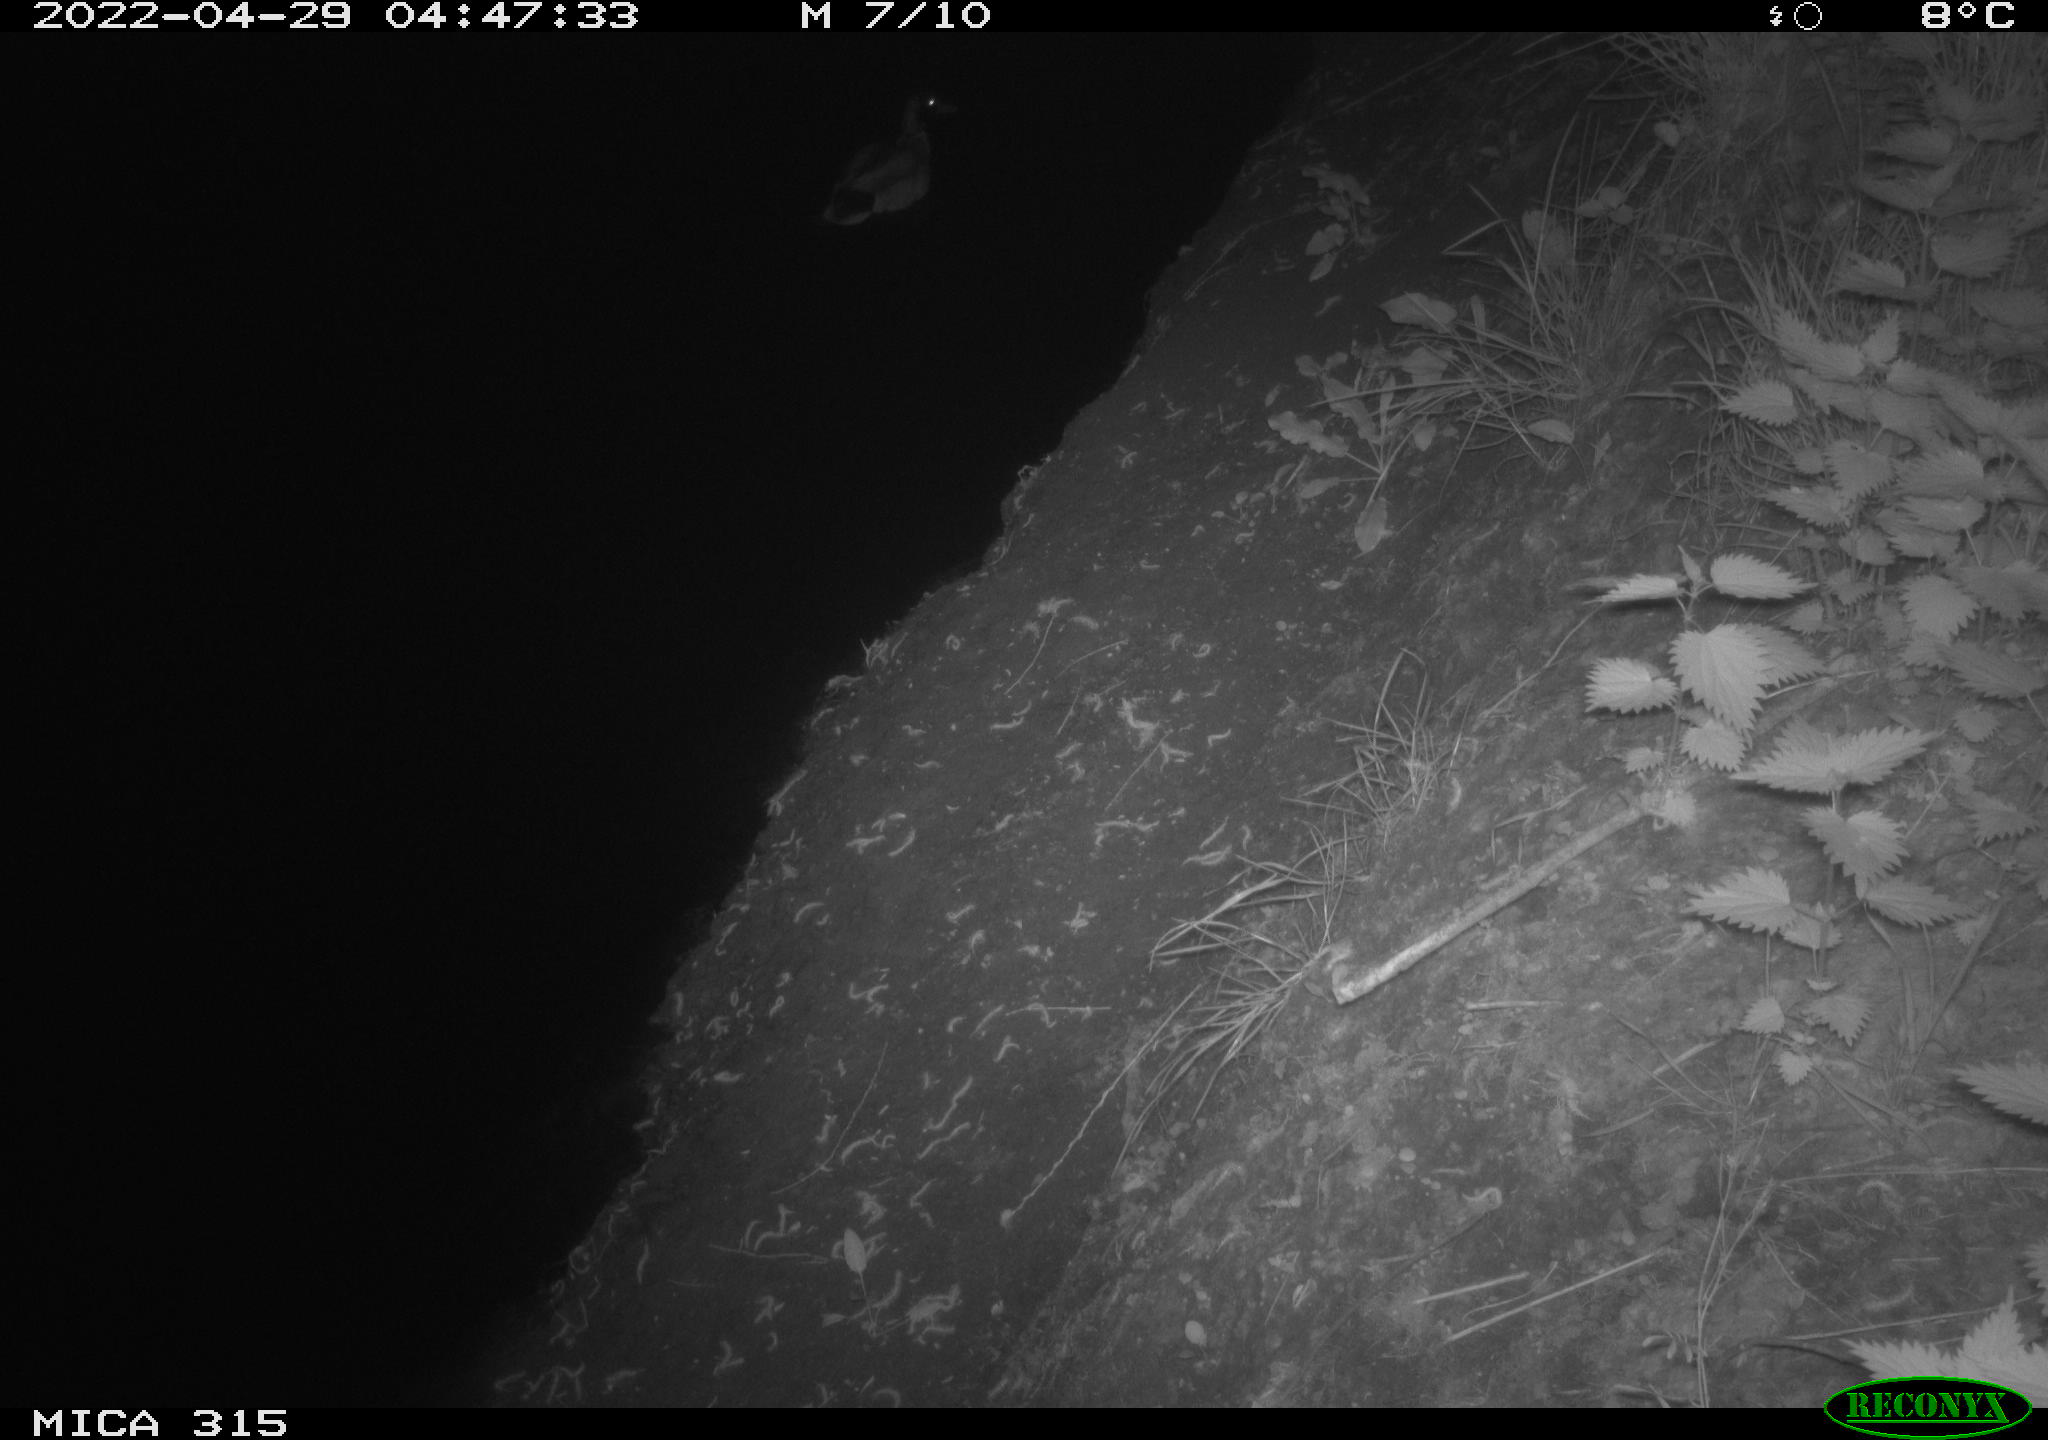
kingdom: Animalia
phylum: Chordata
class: Aves
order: Anseriformes
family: Anatidae
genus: Anas
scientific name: Anas platyrhynchos
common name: Mallard
